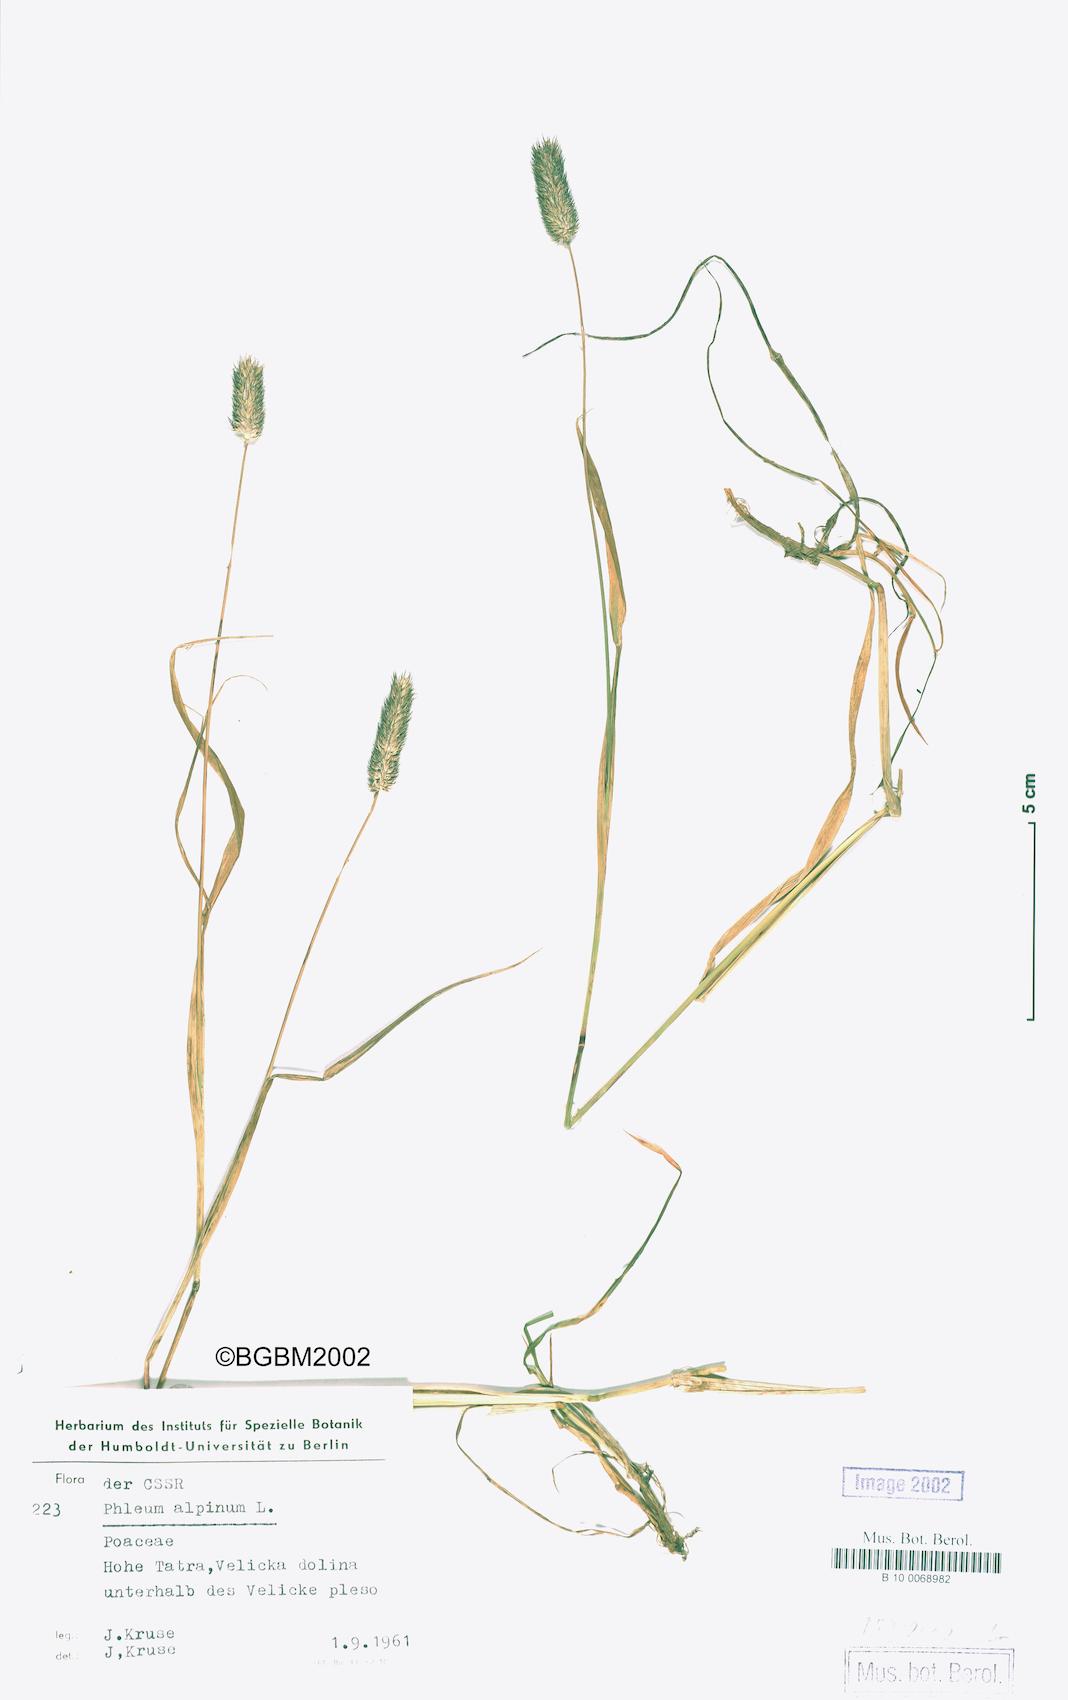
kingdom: Plantae
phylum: Tracheophyta
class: Liliopsida
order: Poales
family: Poaceae
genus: Phleum
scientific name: Phleum alpinum
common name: Alpine cat's-tail
